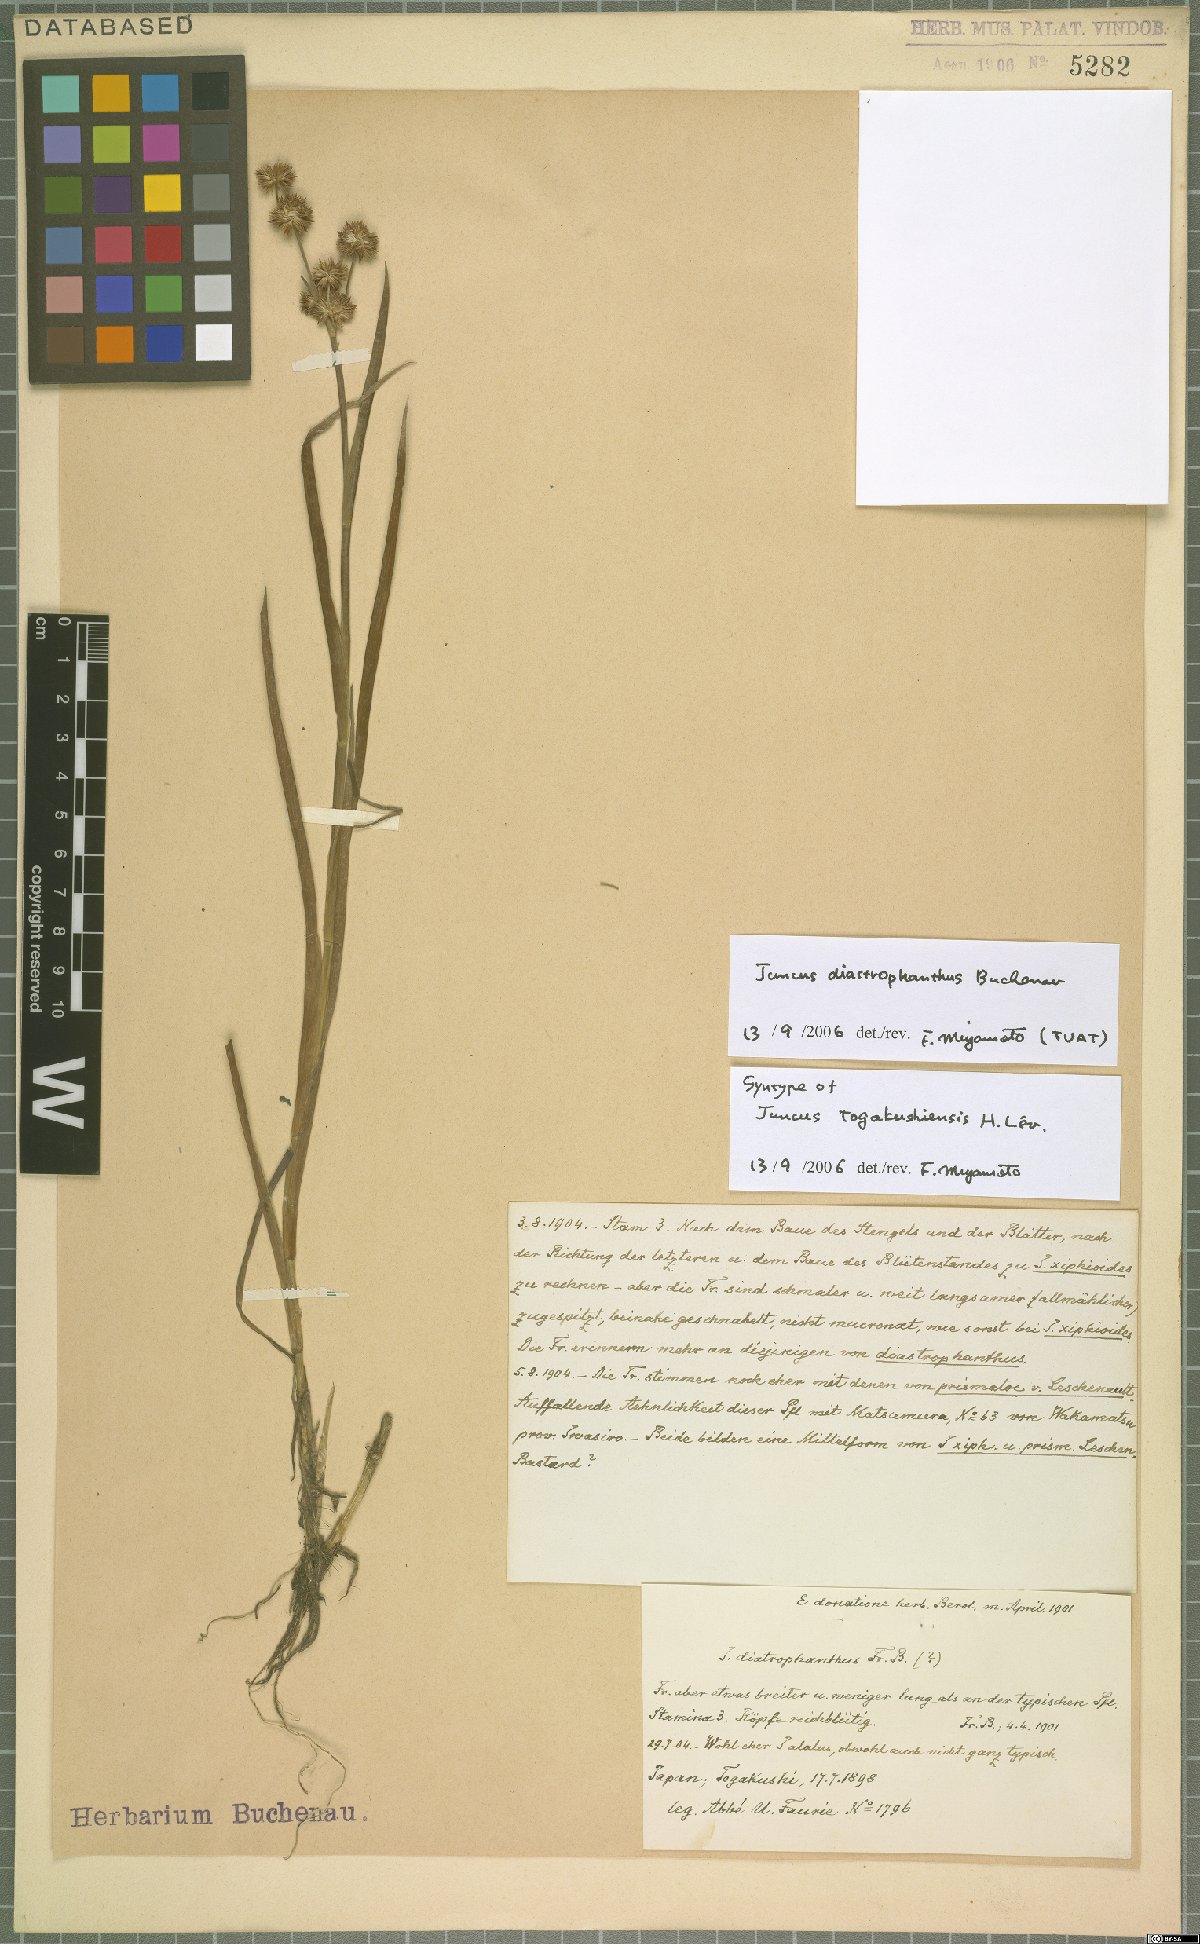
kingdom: Plantae
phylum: Tracheophyta
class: Liliopsida
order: Poales
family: Juncaceae
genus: Juncus
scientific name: Juncus diastrophanthus
